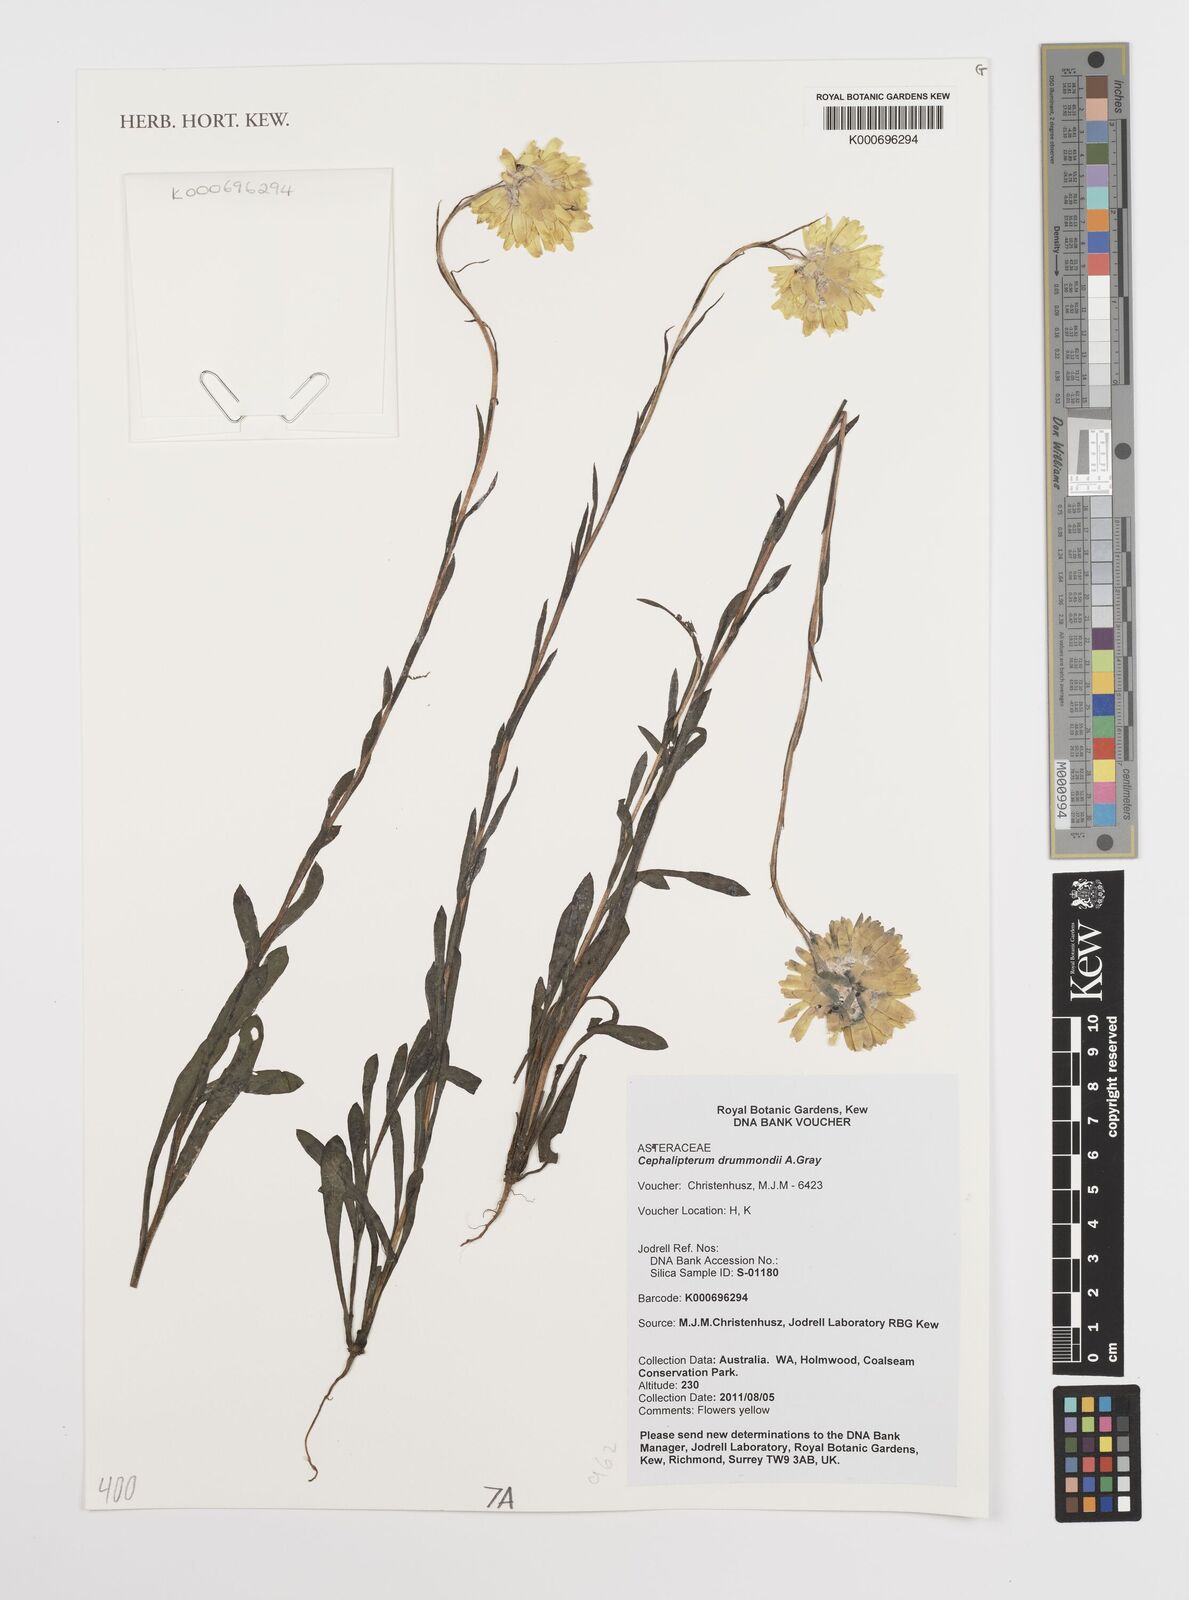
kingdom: Plantae
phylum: Tracheophyta
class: Magnoliopsida
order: Asterales
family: Asteraceae
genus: Cephalipterum
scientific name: Cephalipterum drummondii
